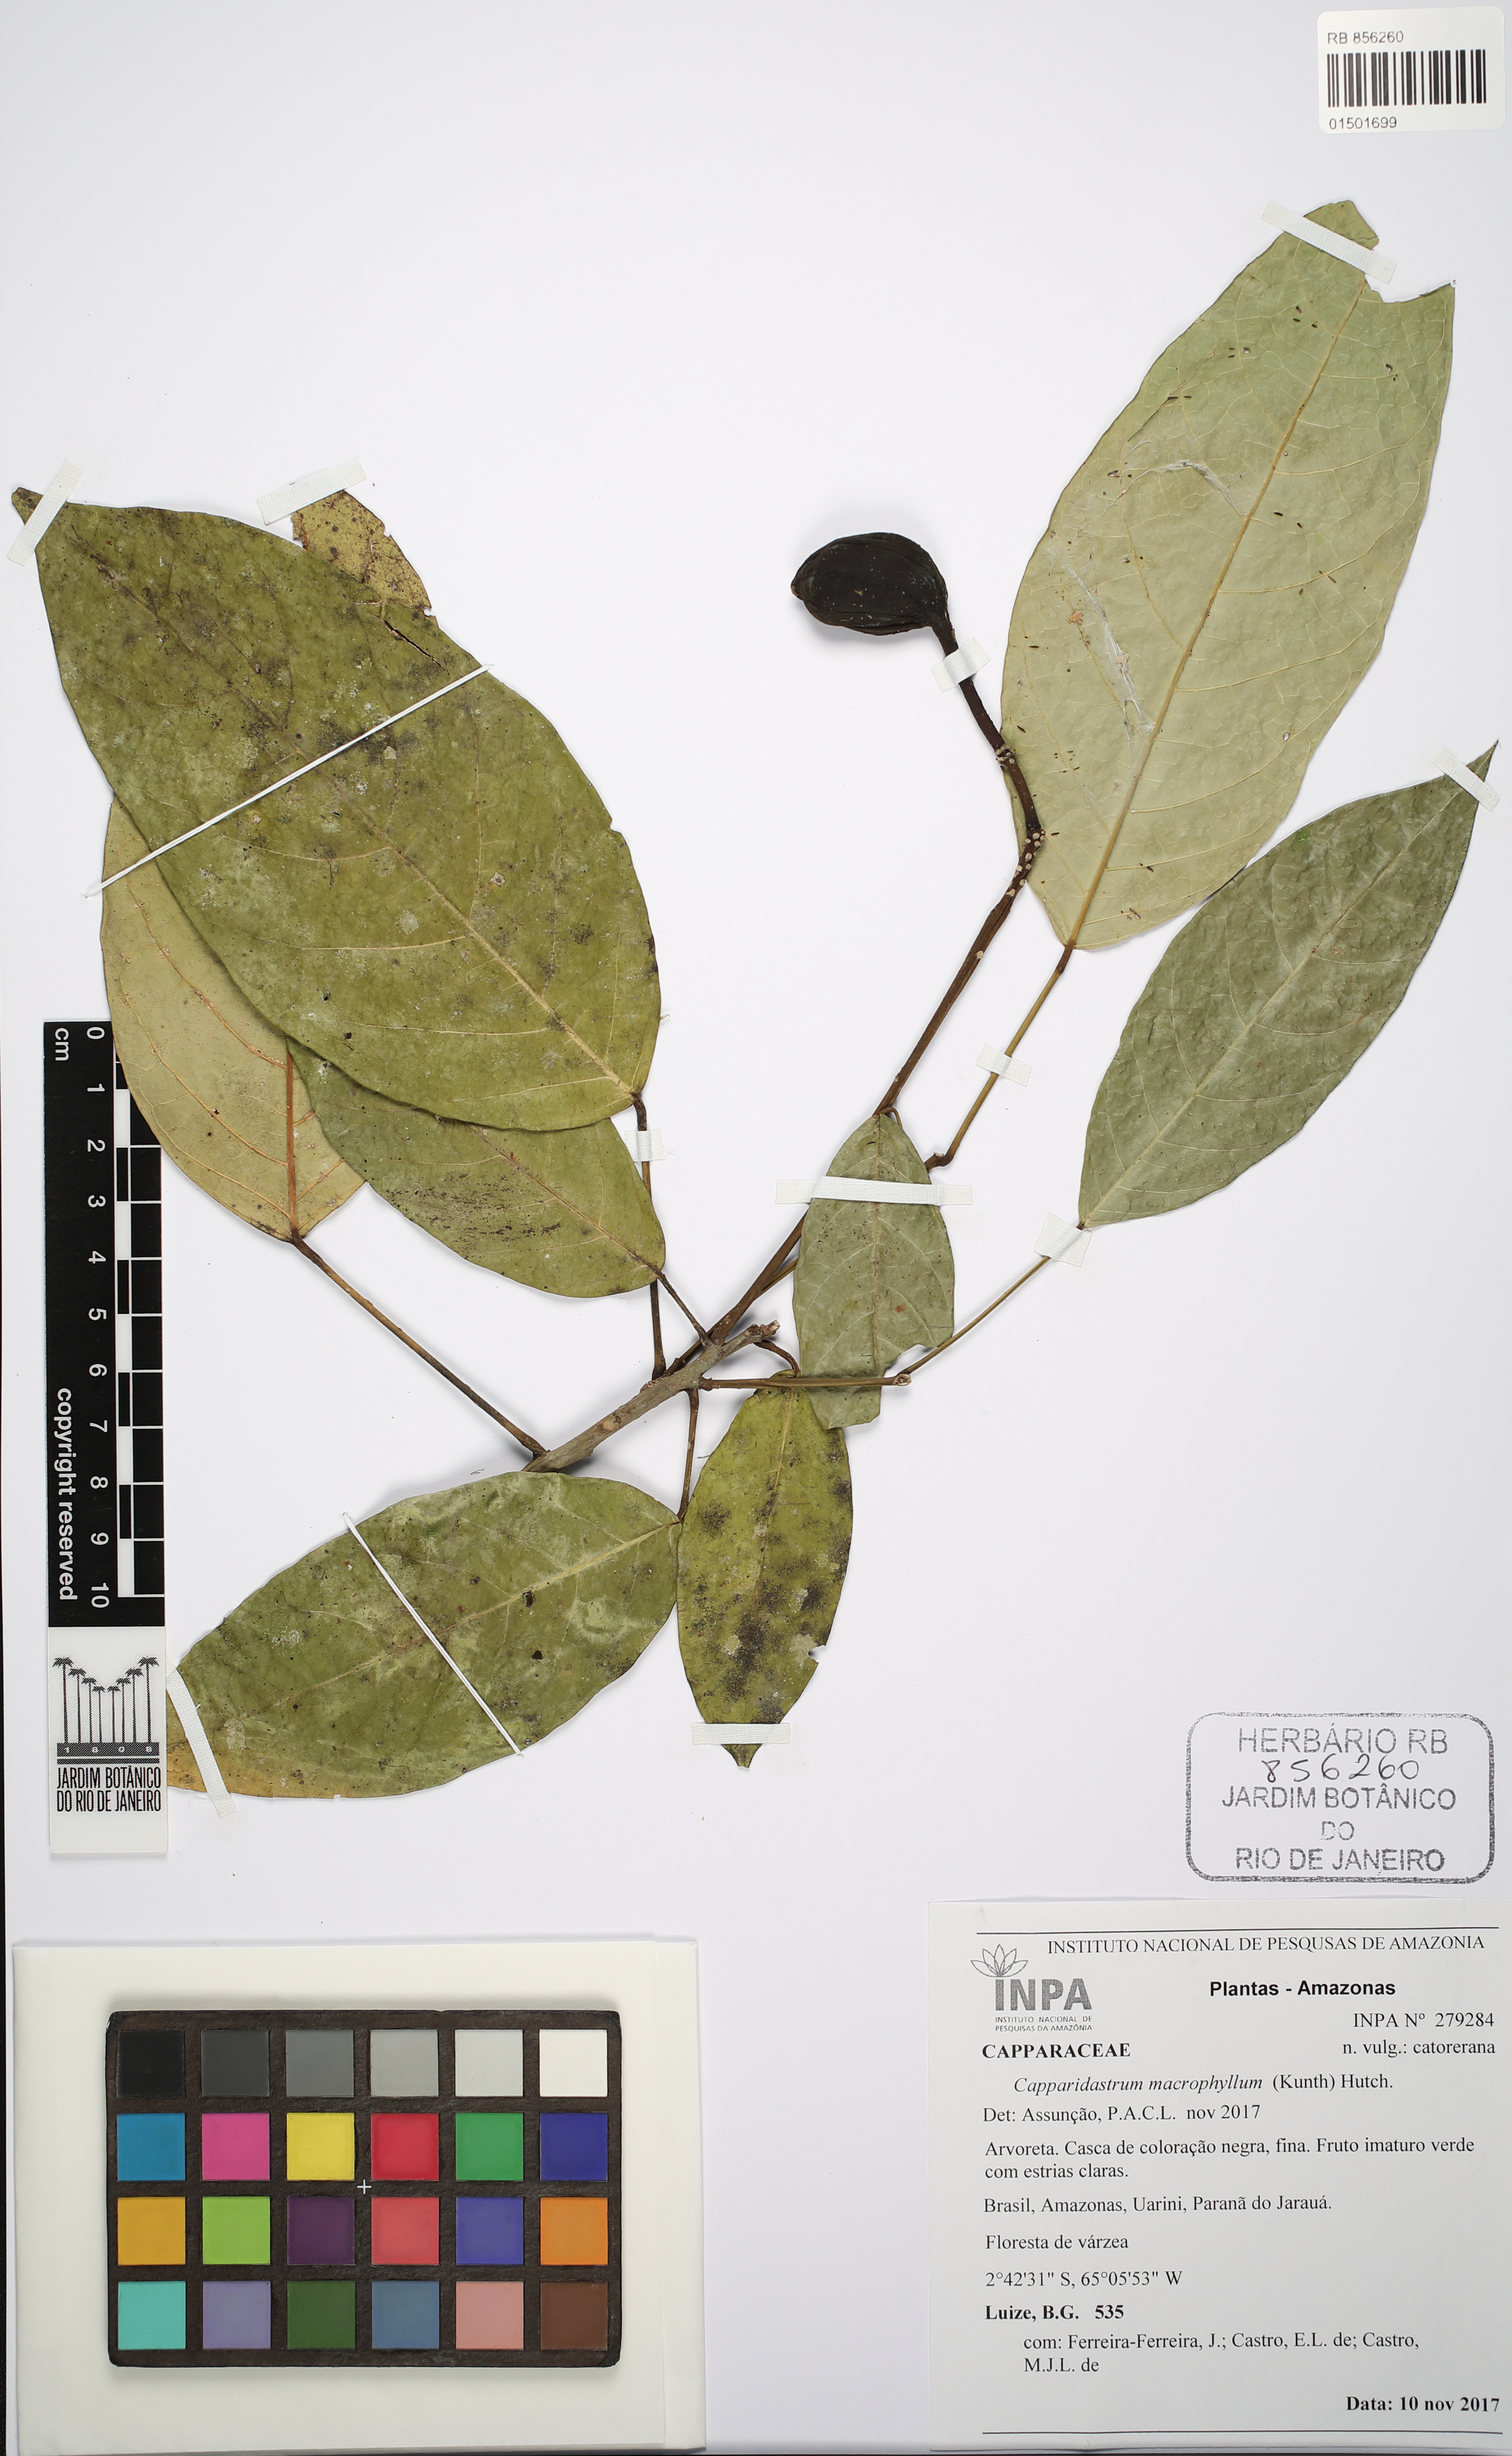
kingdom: Plantae
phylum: Tracheophyta
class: Magnoliopsida
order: Brassicales
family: Capparaceae
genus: Capparidastrum
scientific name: Capparidastrum macrophyllum
